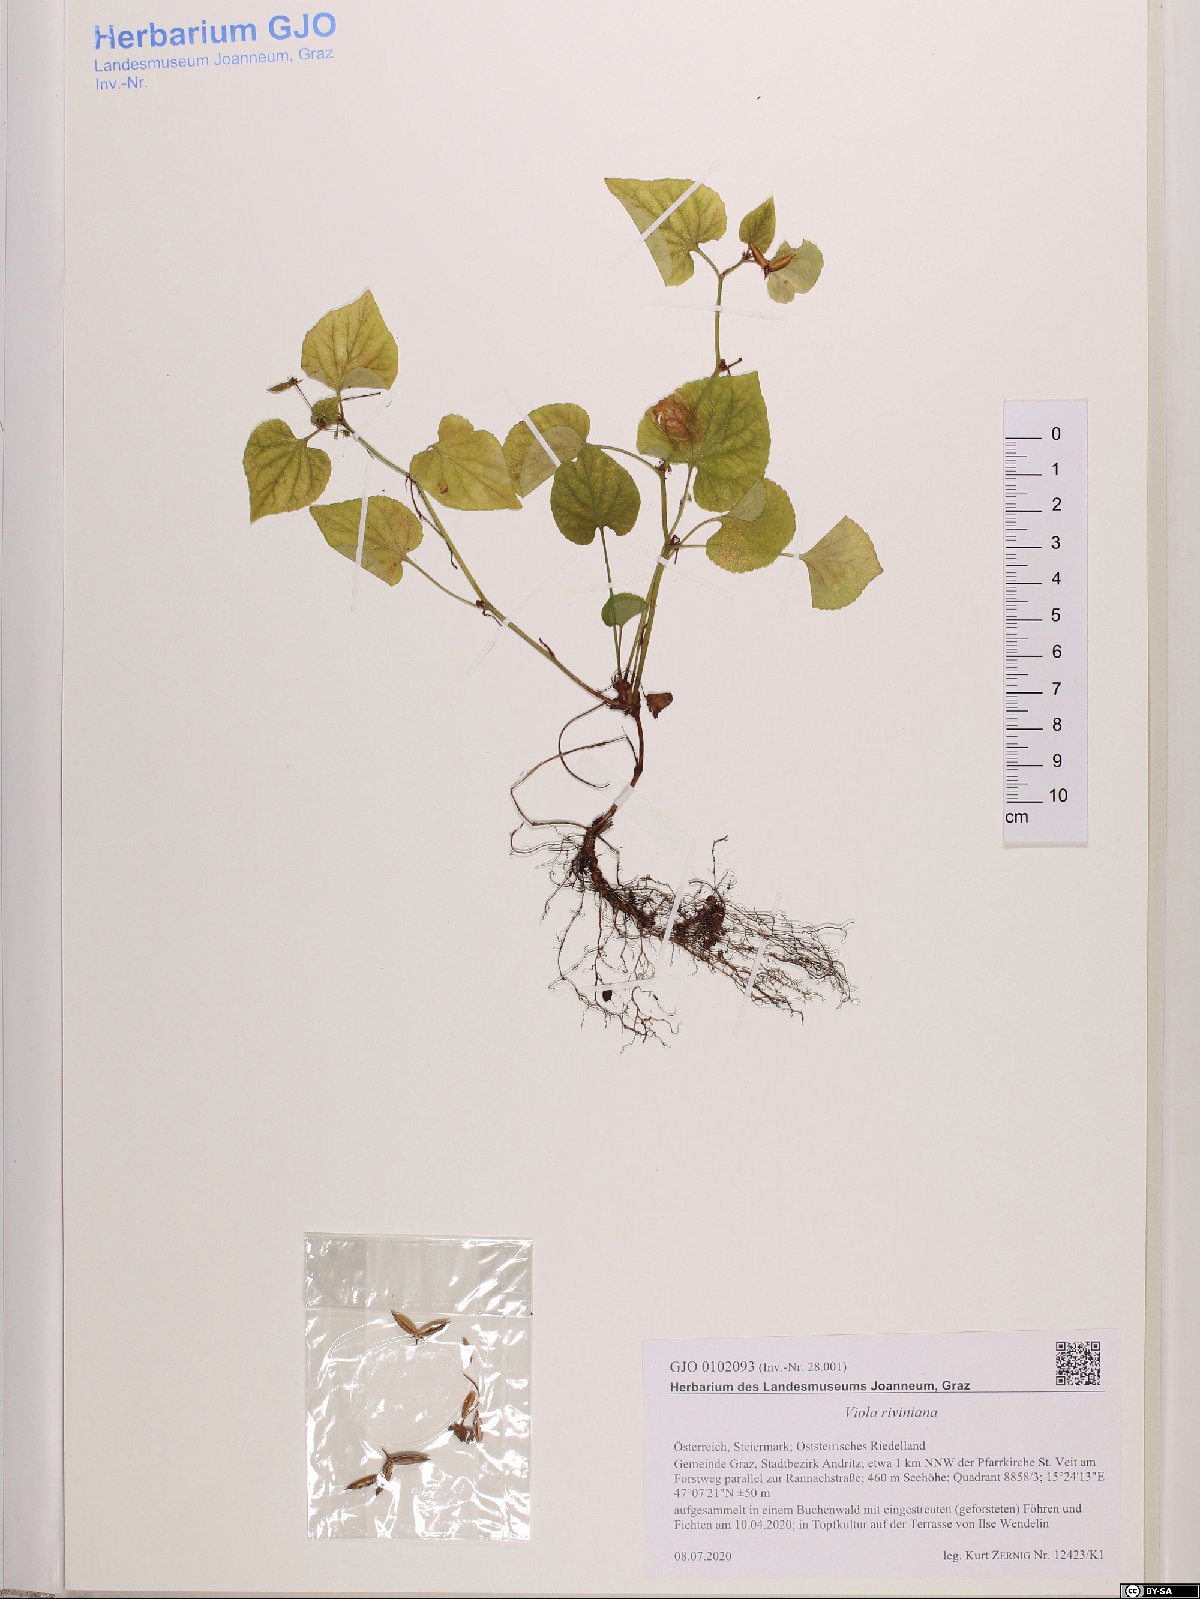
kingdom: Plantae
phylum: Tracheophyta
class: Magnoliopsida
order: Malpighiales
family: Violaceae
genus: Viola
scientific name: Viola riviniana
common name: Common dog-violet
